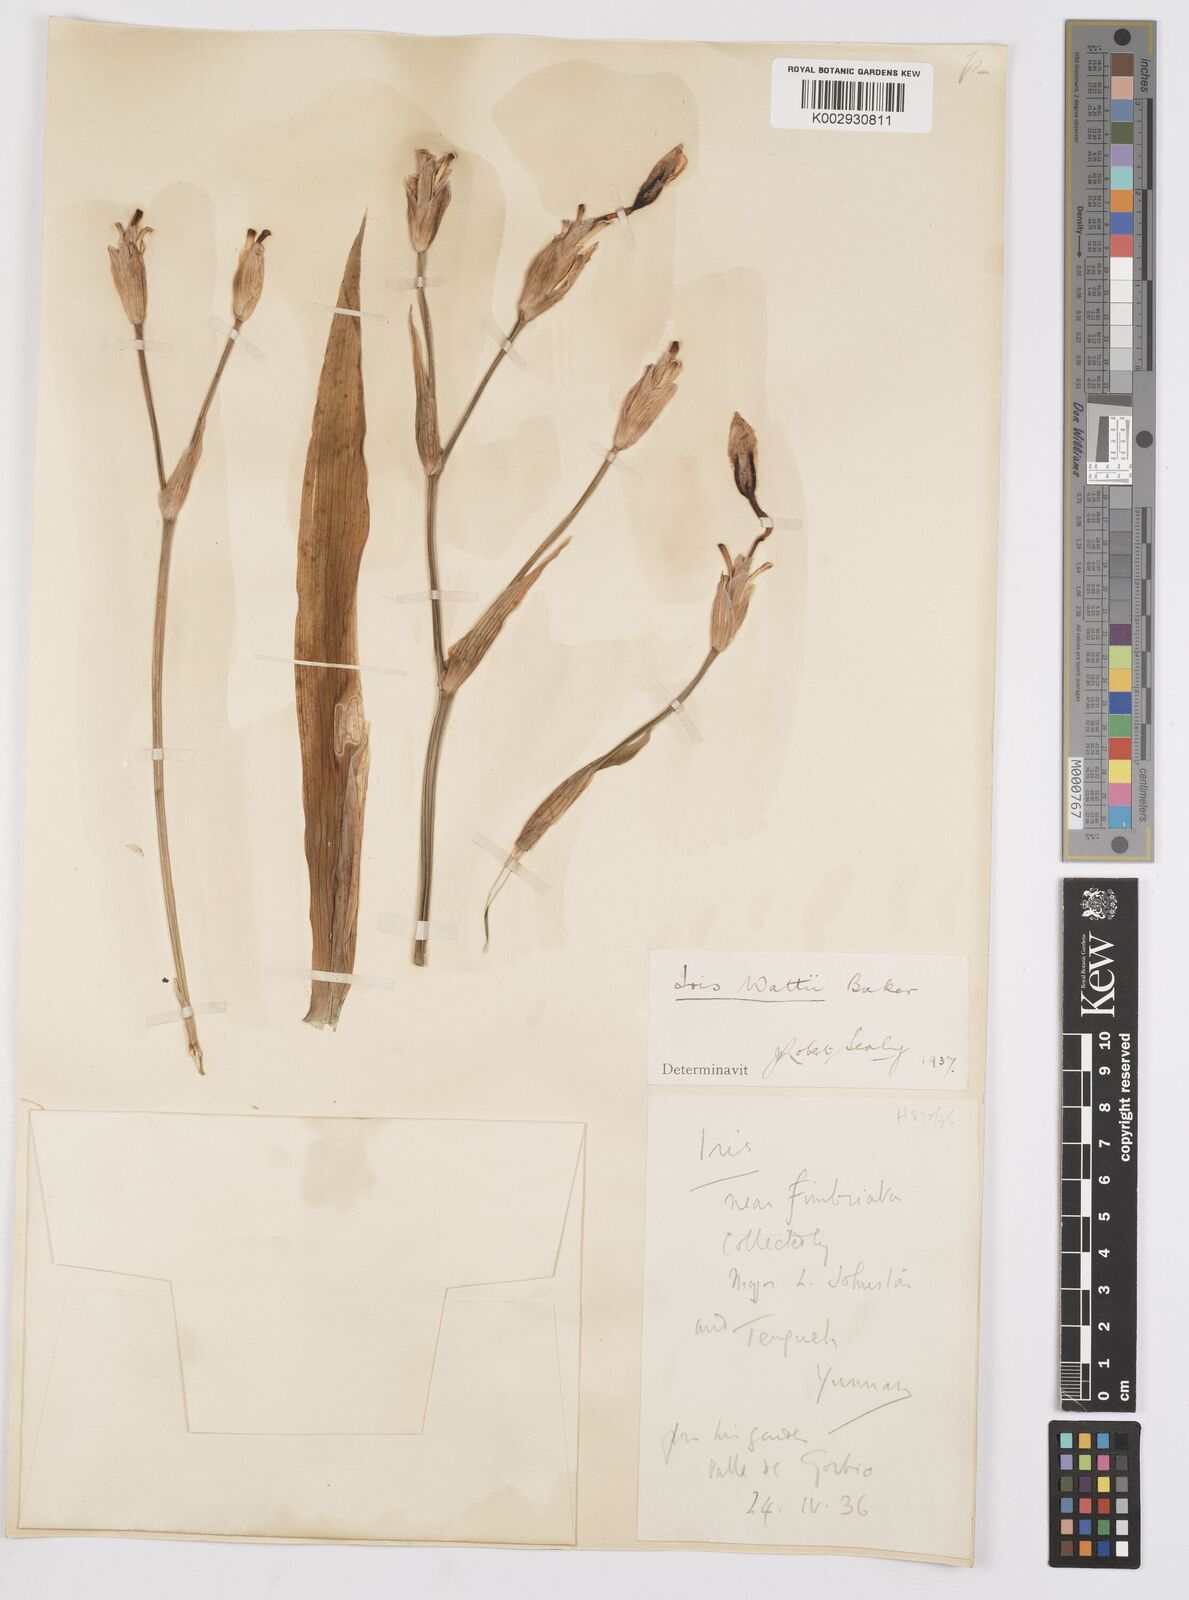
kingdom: Plantae
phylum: Tracheophyta
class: Liliopsida
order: Asparagales
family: Iridaceae
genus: Iris
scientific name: Iris wattii
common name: Fan-shape iris
